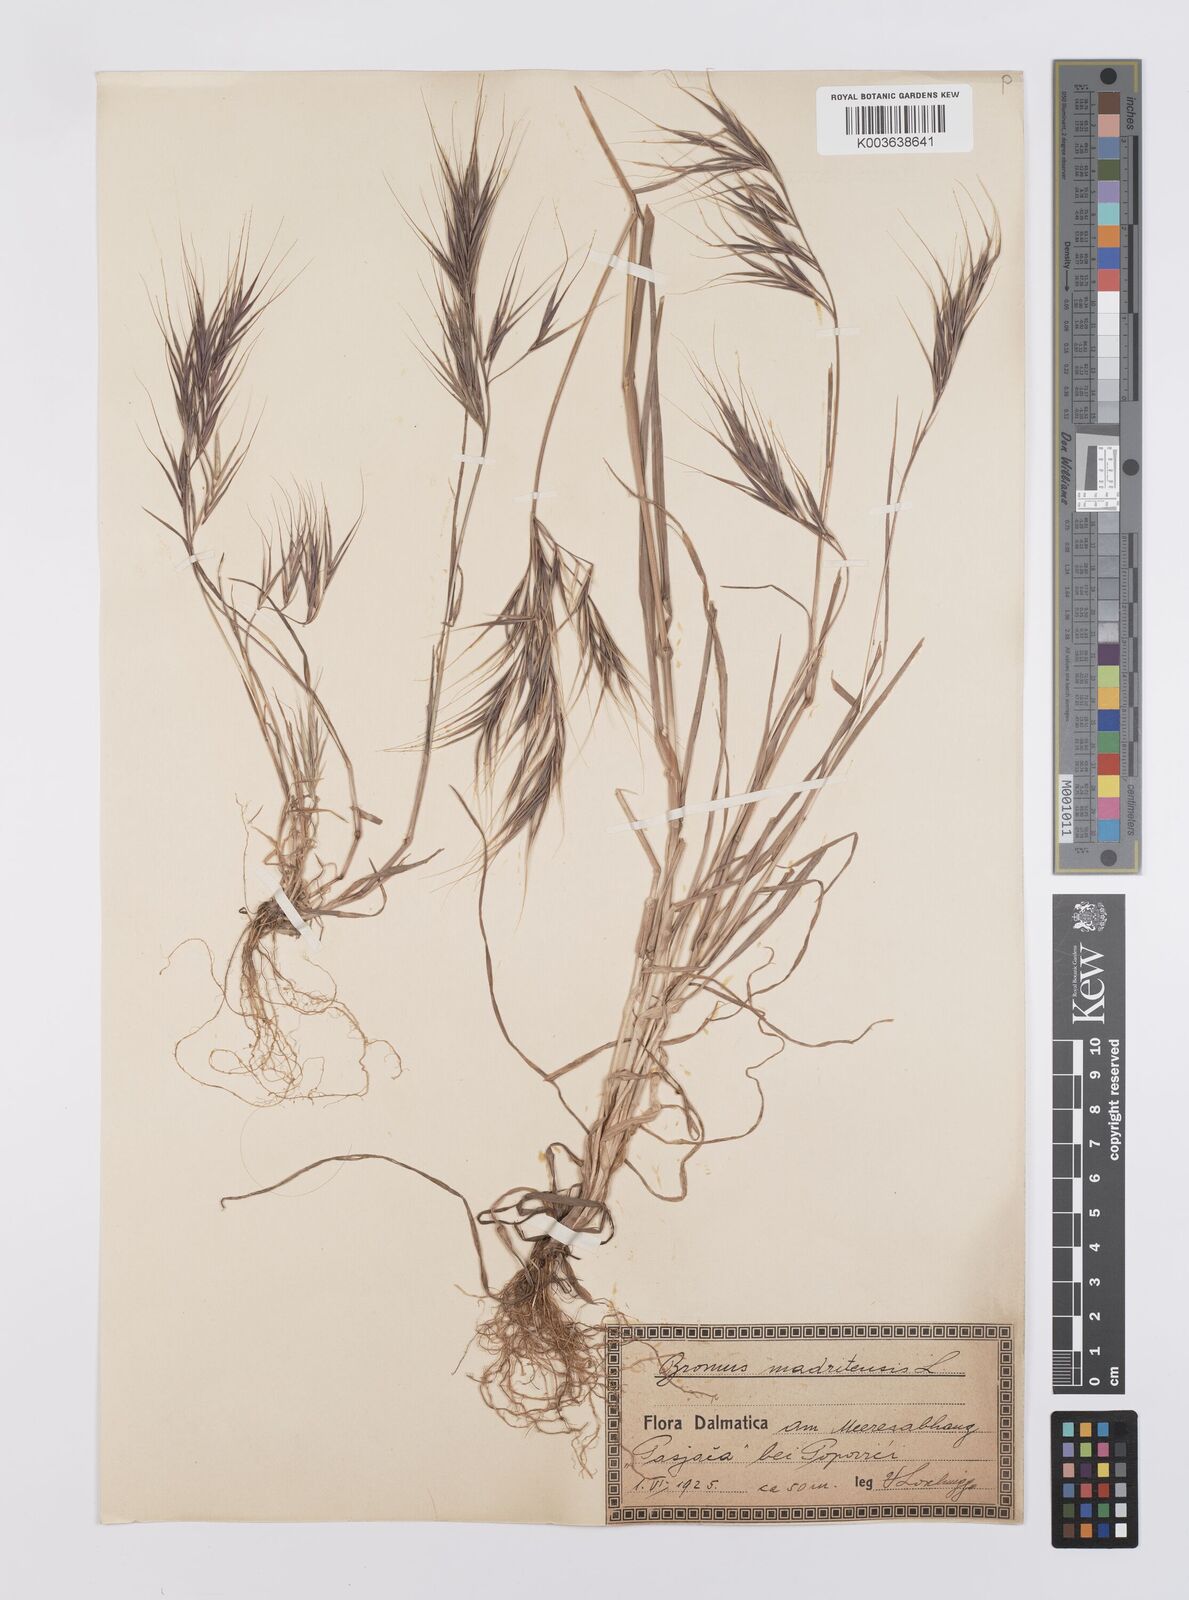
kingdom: Plantae
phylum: Tracheophyta
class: Liliopsida
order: Poales
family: Poaceae
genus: Bromus
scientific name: Bromus madritensis
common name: Compact brome
